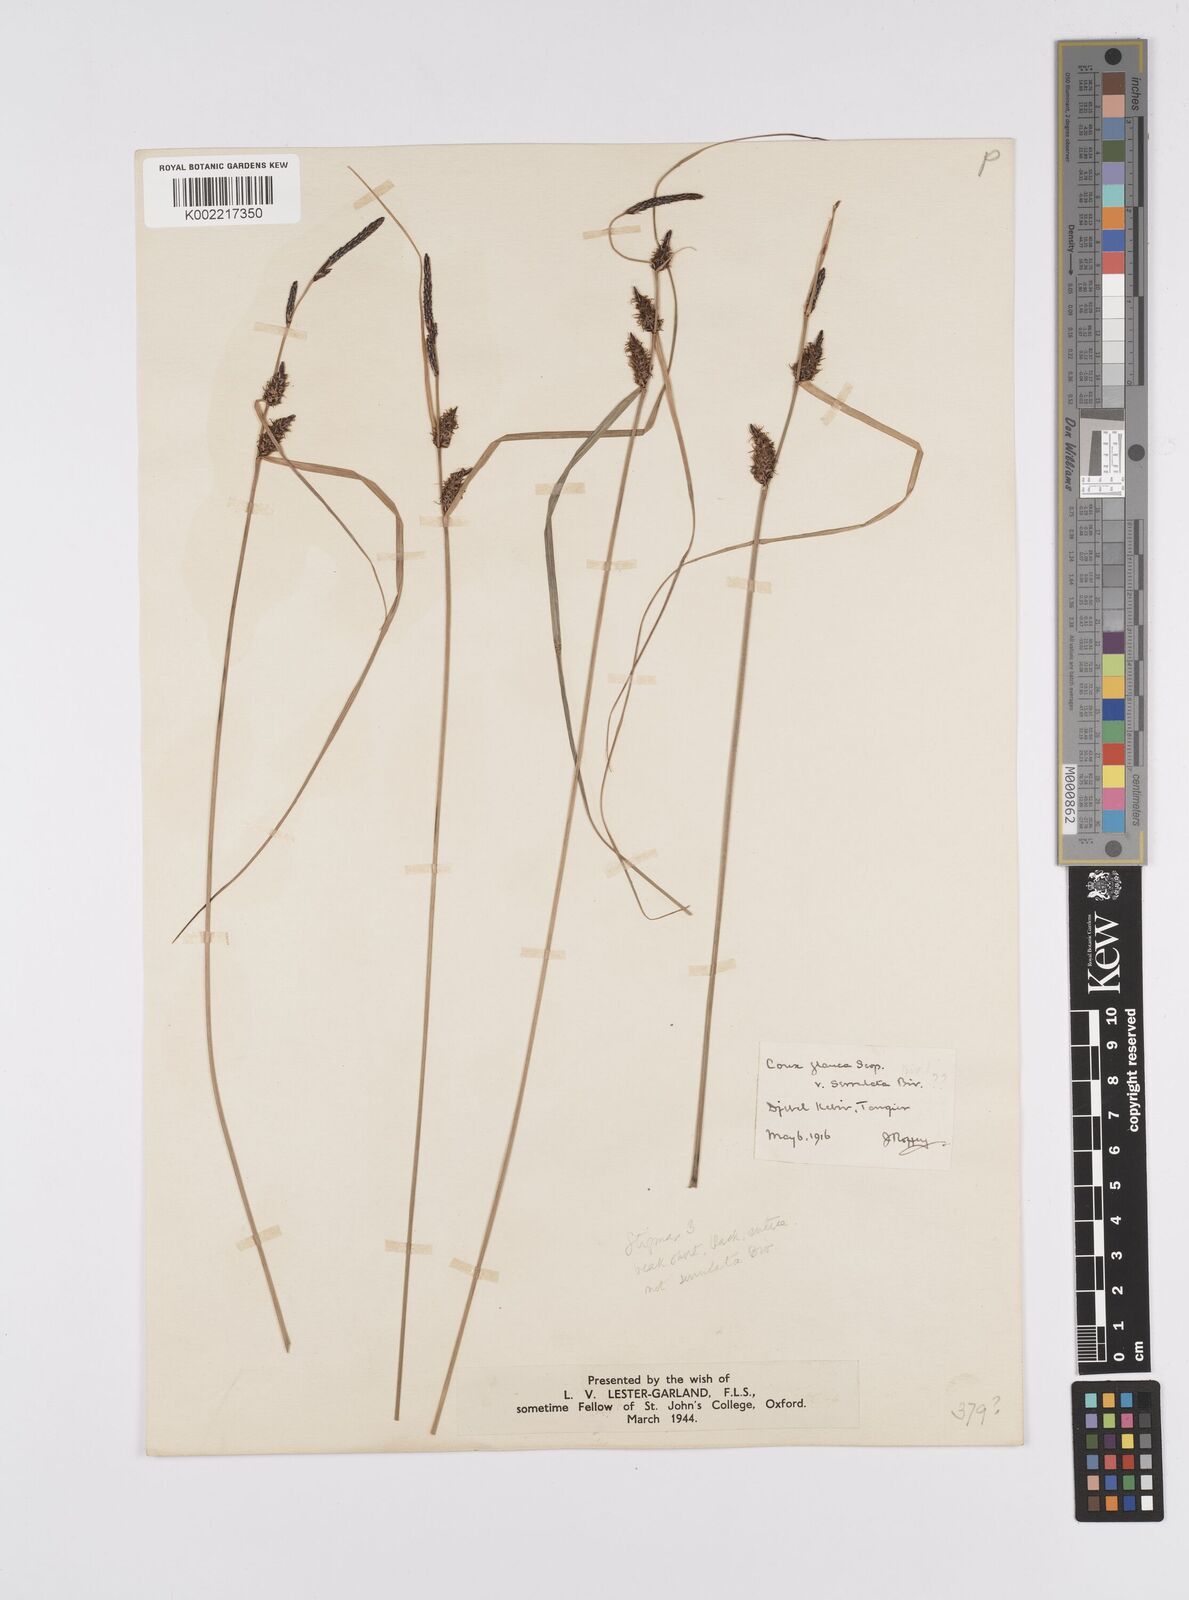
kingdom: Plantae
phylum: Tracheophyta
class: Liliopsida
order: Poales
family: Cyperaceae
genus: Carex
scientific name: Carex flacca
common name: Glaucous sedge
